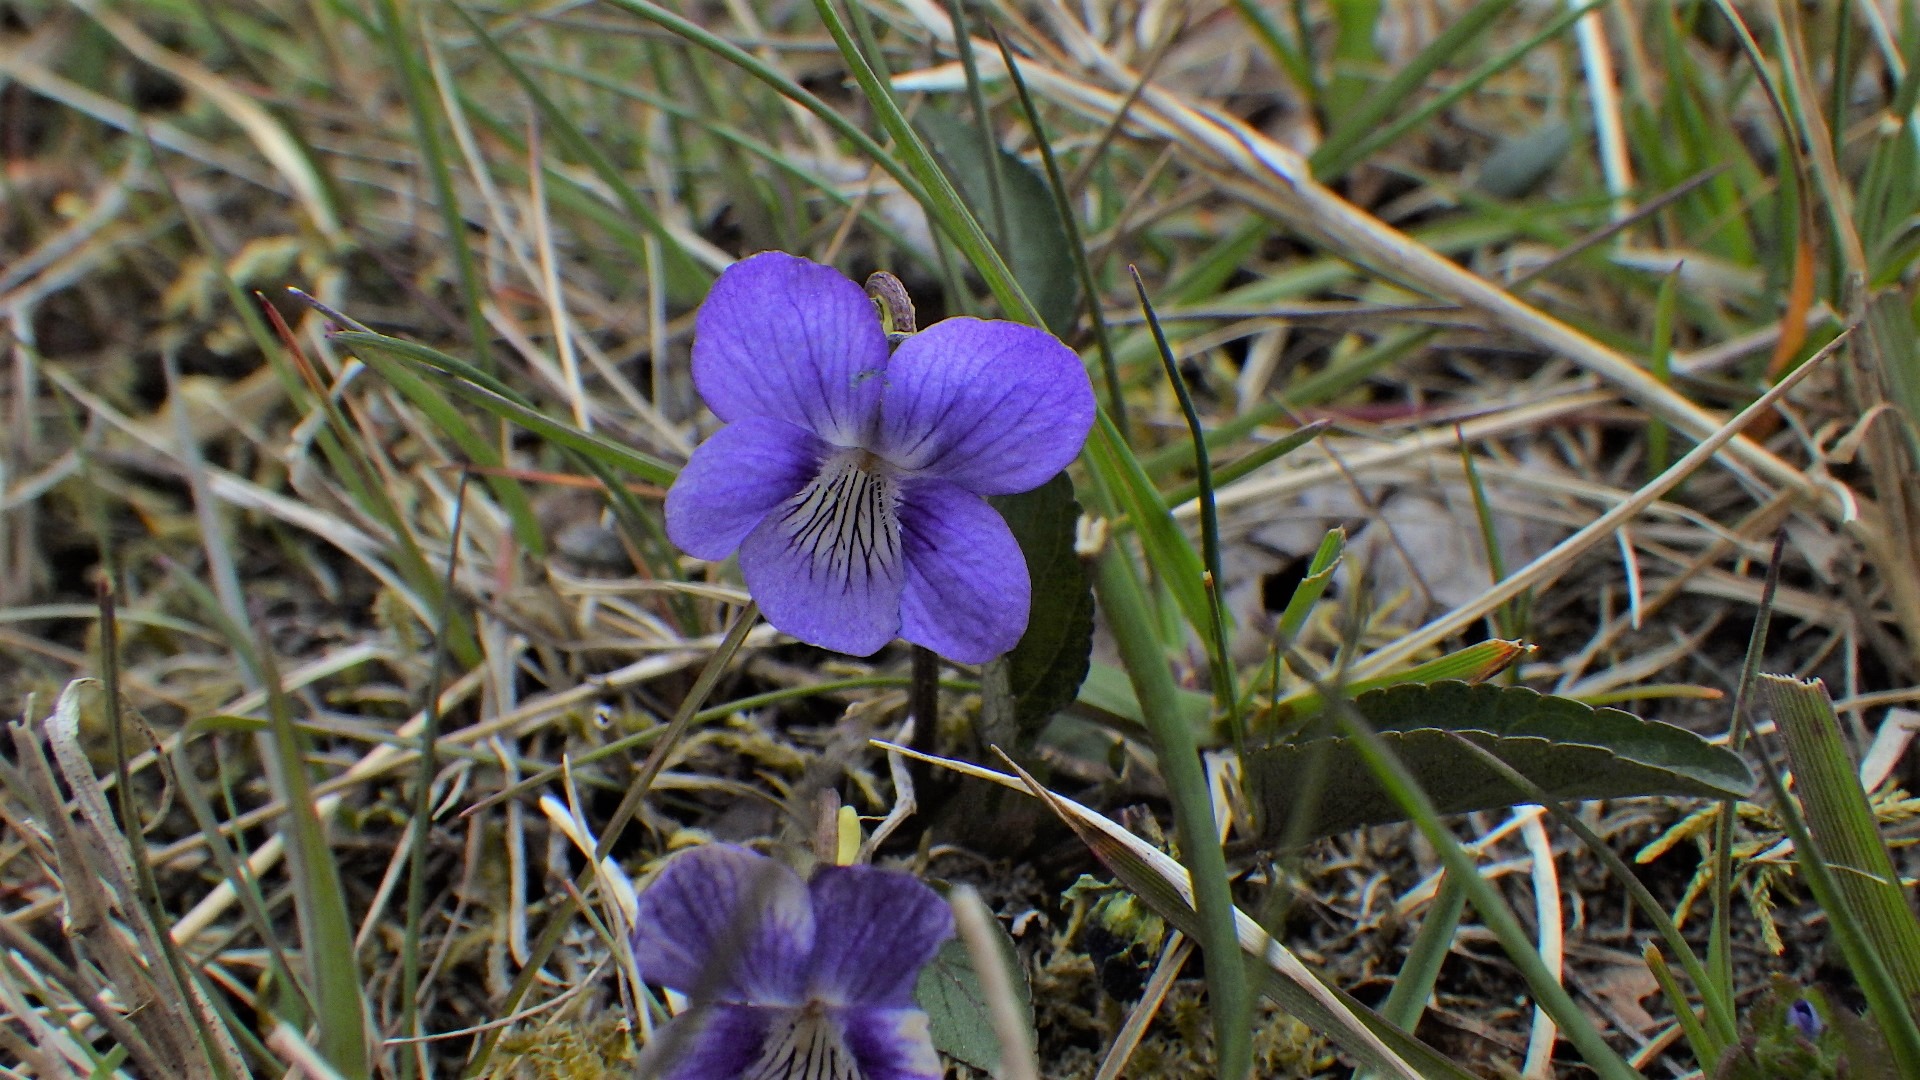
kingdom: Plantae
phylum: Tracheophyta
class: Magnoliopsida
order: Malpighiales
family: Violaceae
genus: Viola
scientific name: Viola canina
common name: Hunde-viol
